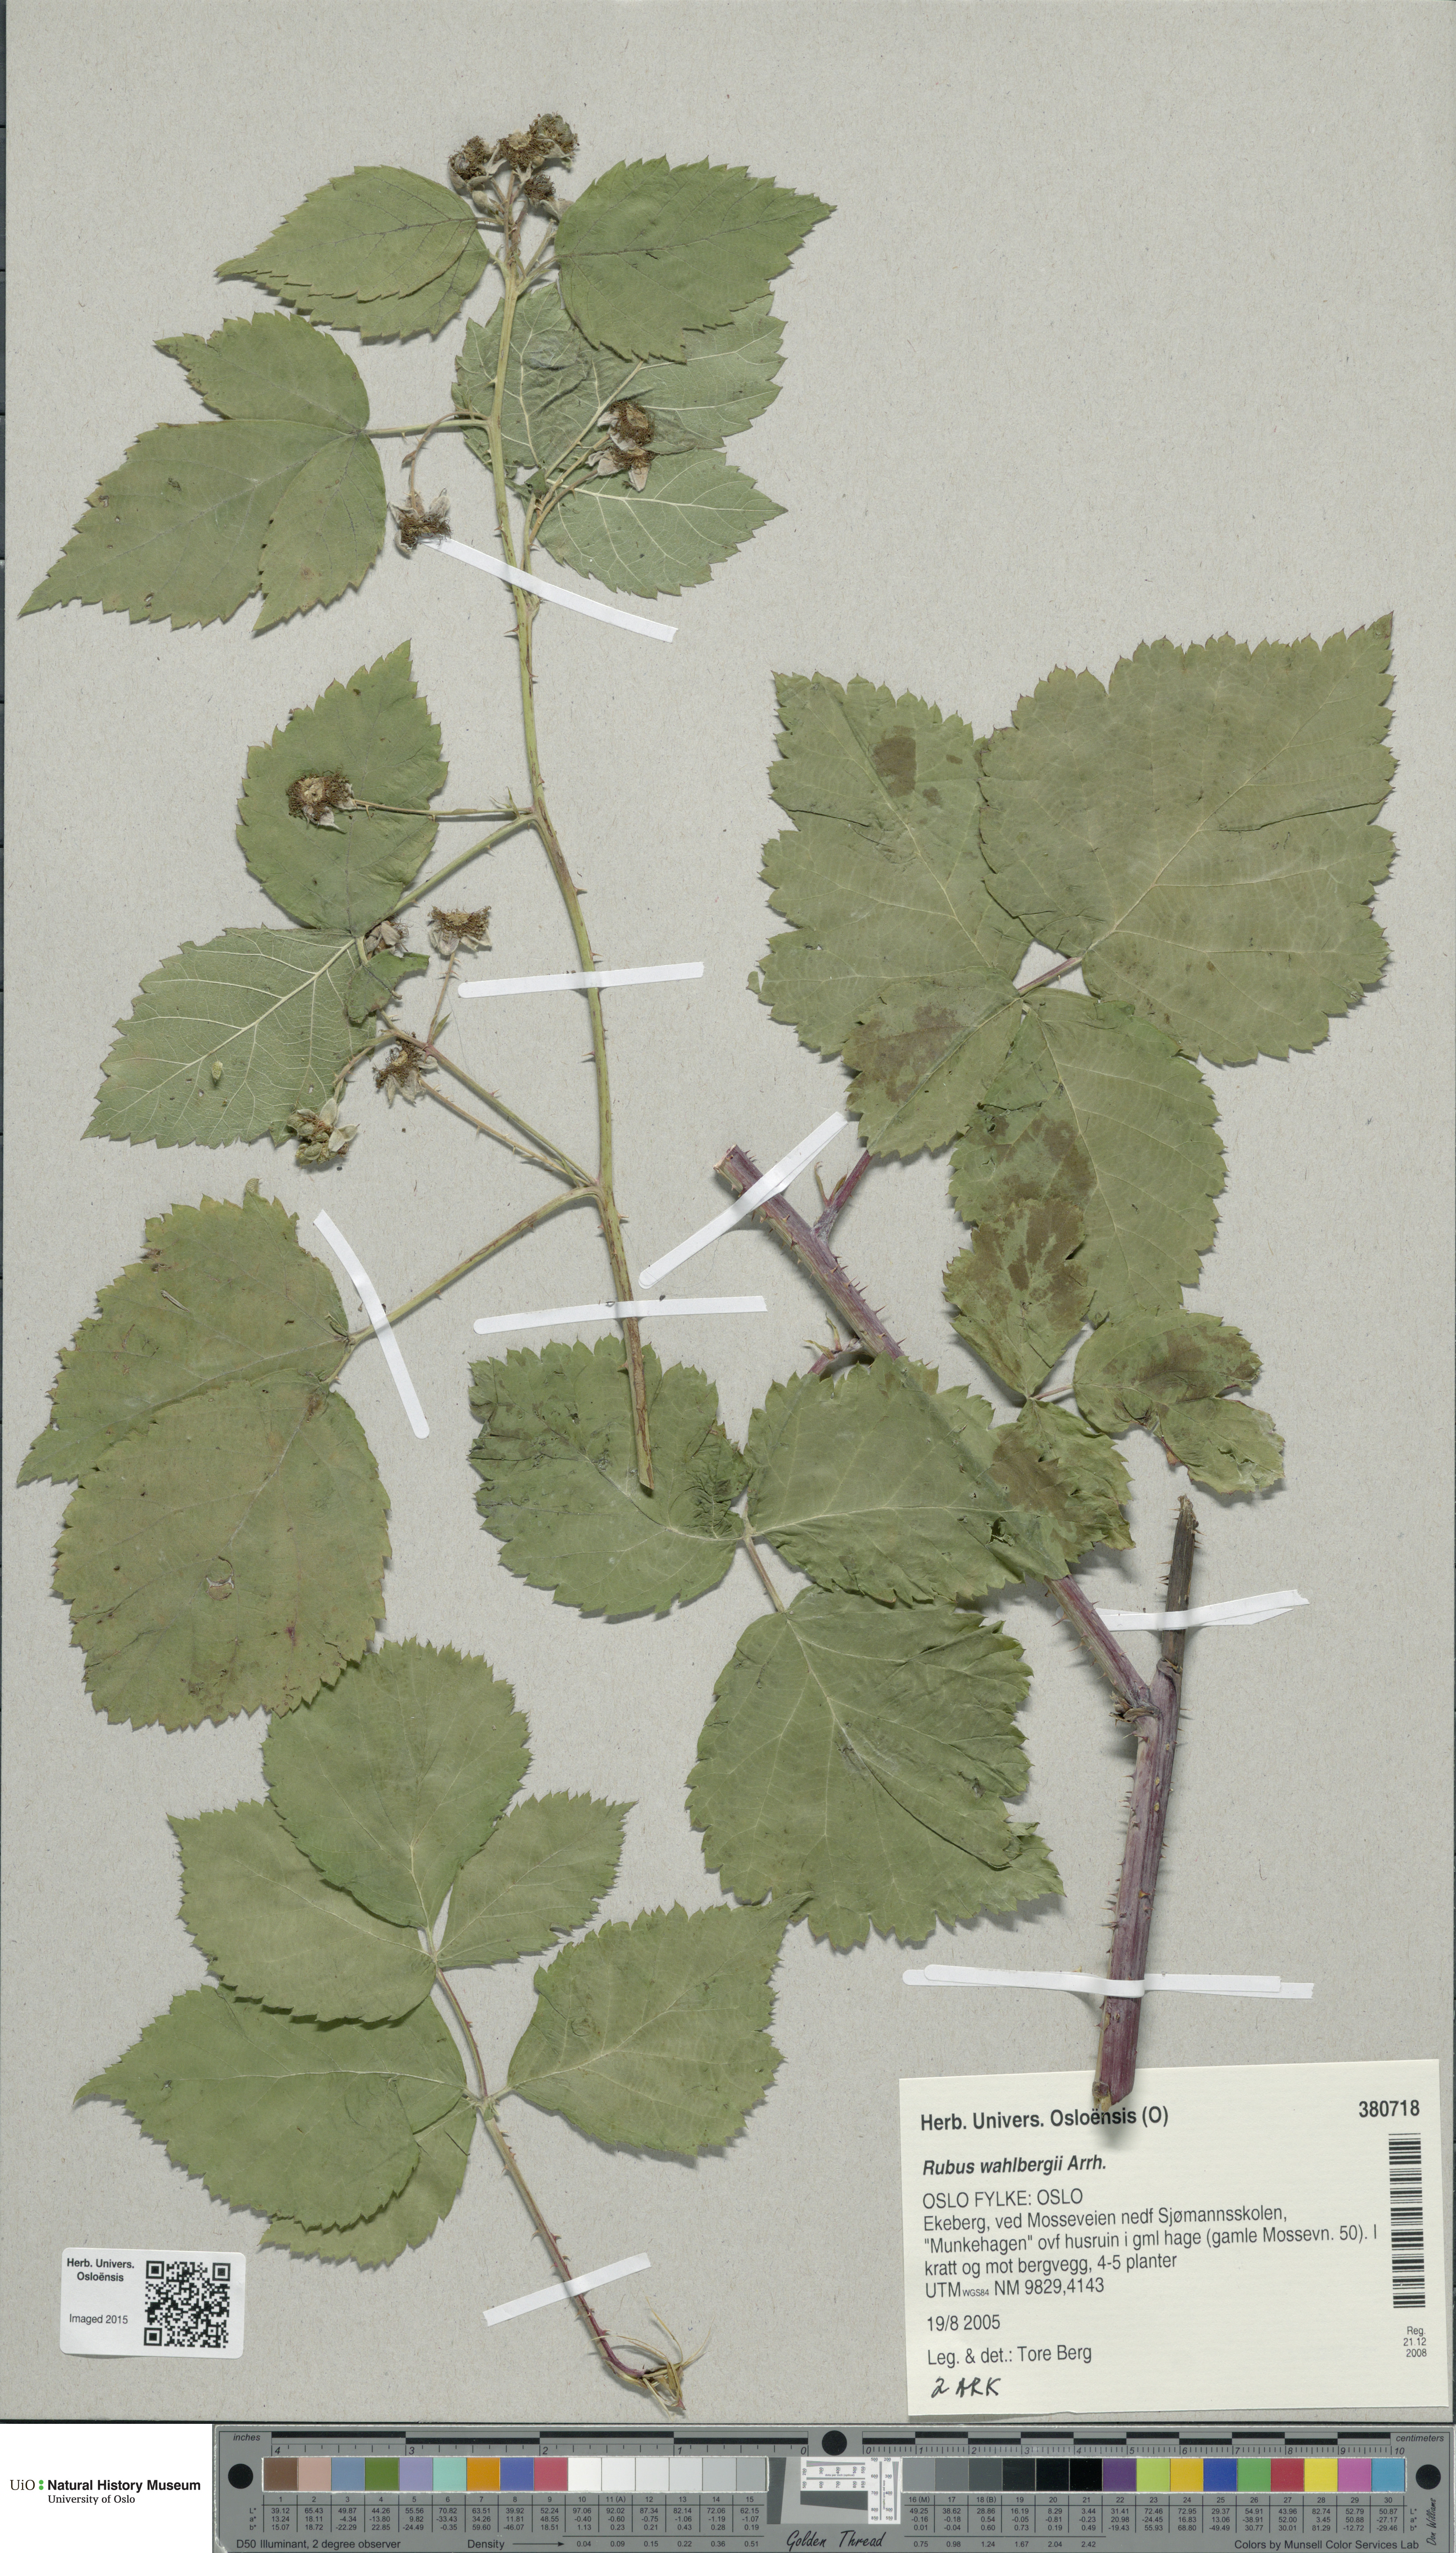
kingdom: Plantae
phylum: Tracheophyta
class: Magnoliopsida
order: Rosales
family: Rosaceae
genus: Rubus
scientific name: Rubus wahlbergii
